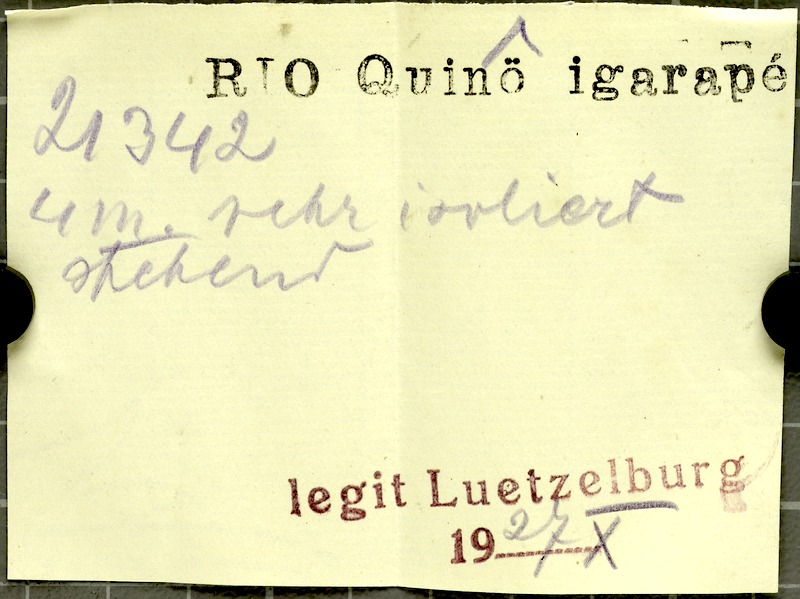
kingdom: Plantae
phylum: Tracheophyta
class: Liliopsida
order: Arecales
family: Arecaceae
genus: Mauritia
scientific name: Mauritia
